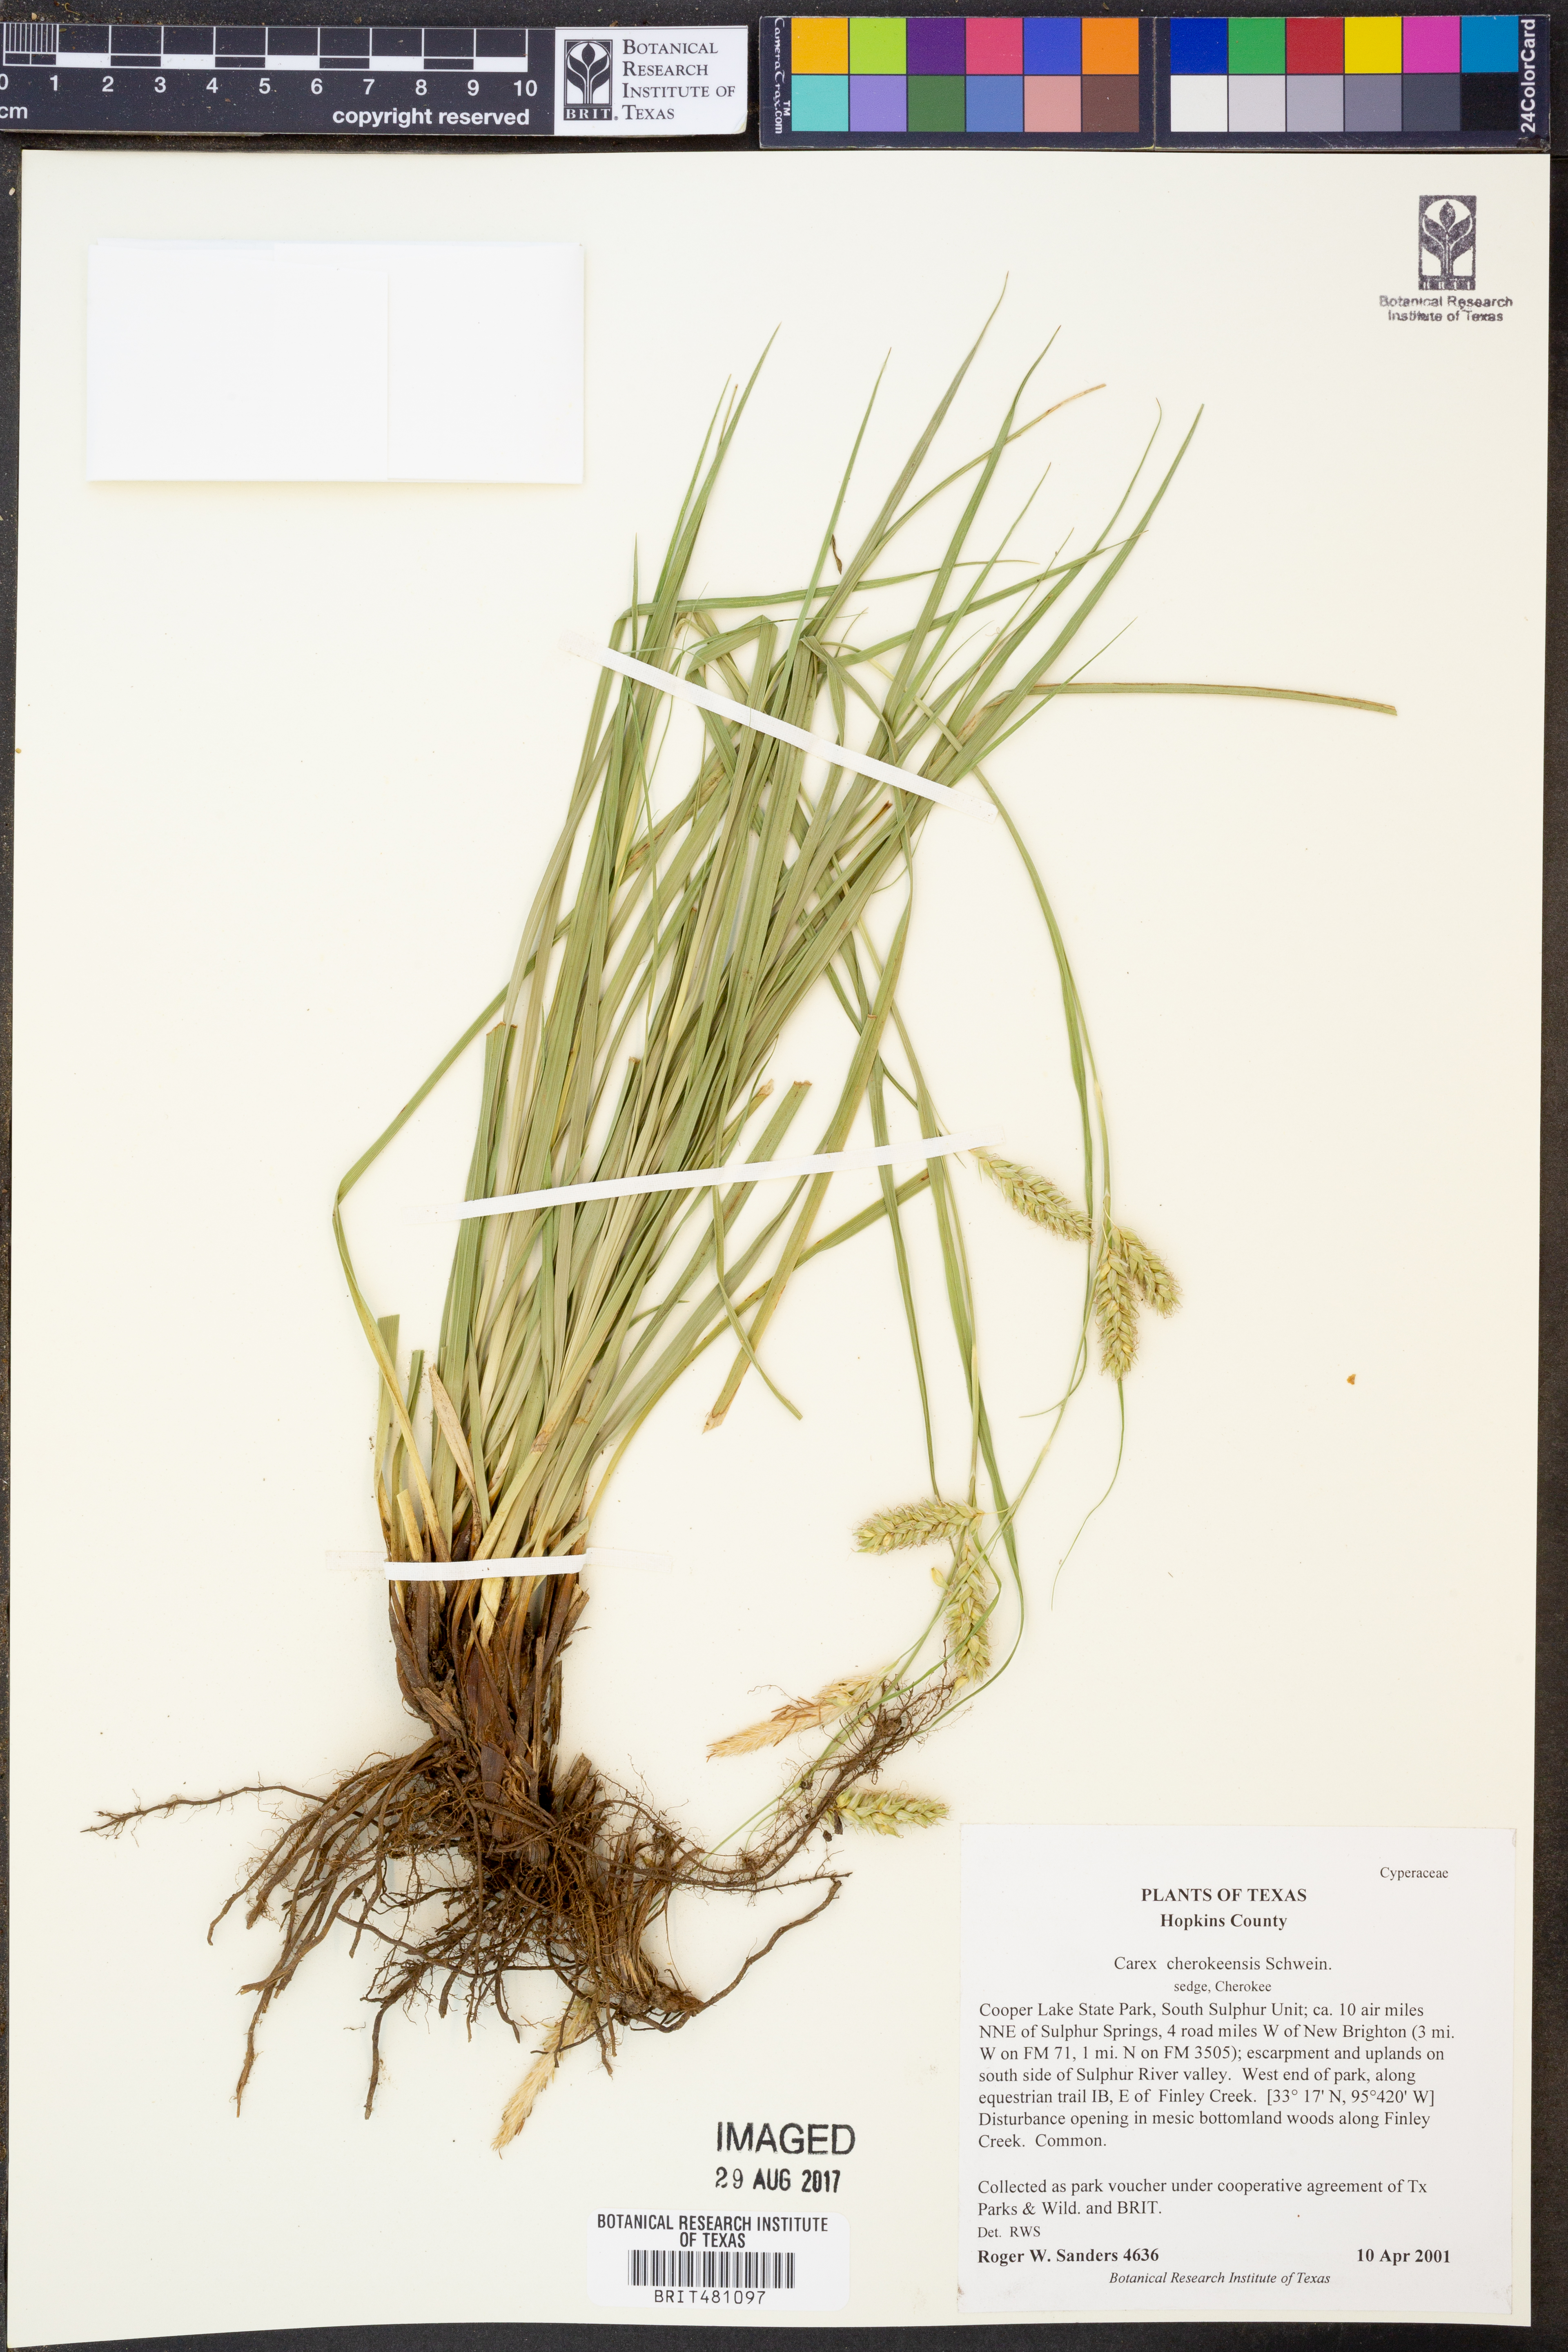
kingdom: Plantae
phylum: Tracheophyta
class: Liliopsida
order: Poales
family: Cyperaceae
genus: Carex
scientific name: Carex cherokeensis
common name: Cherokee sedge
